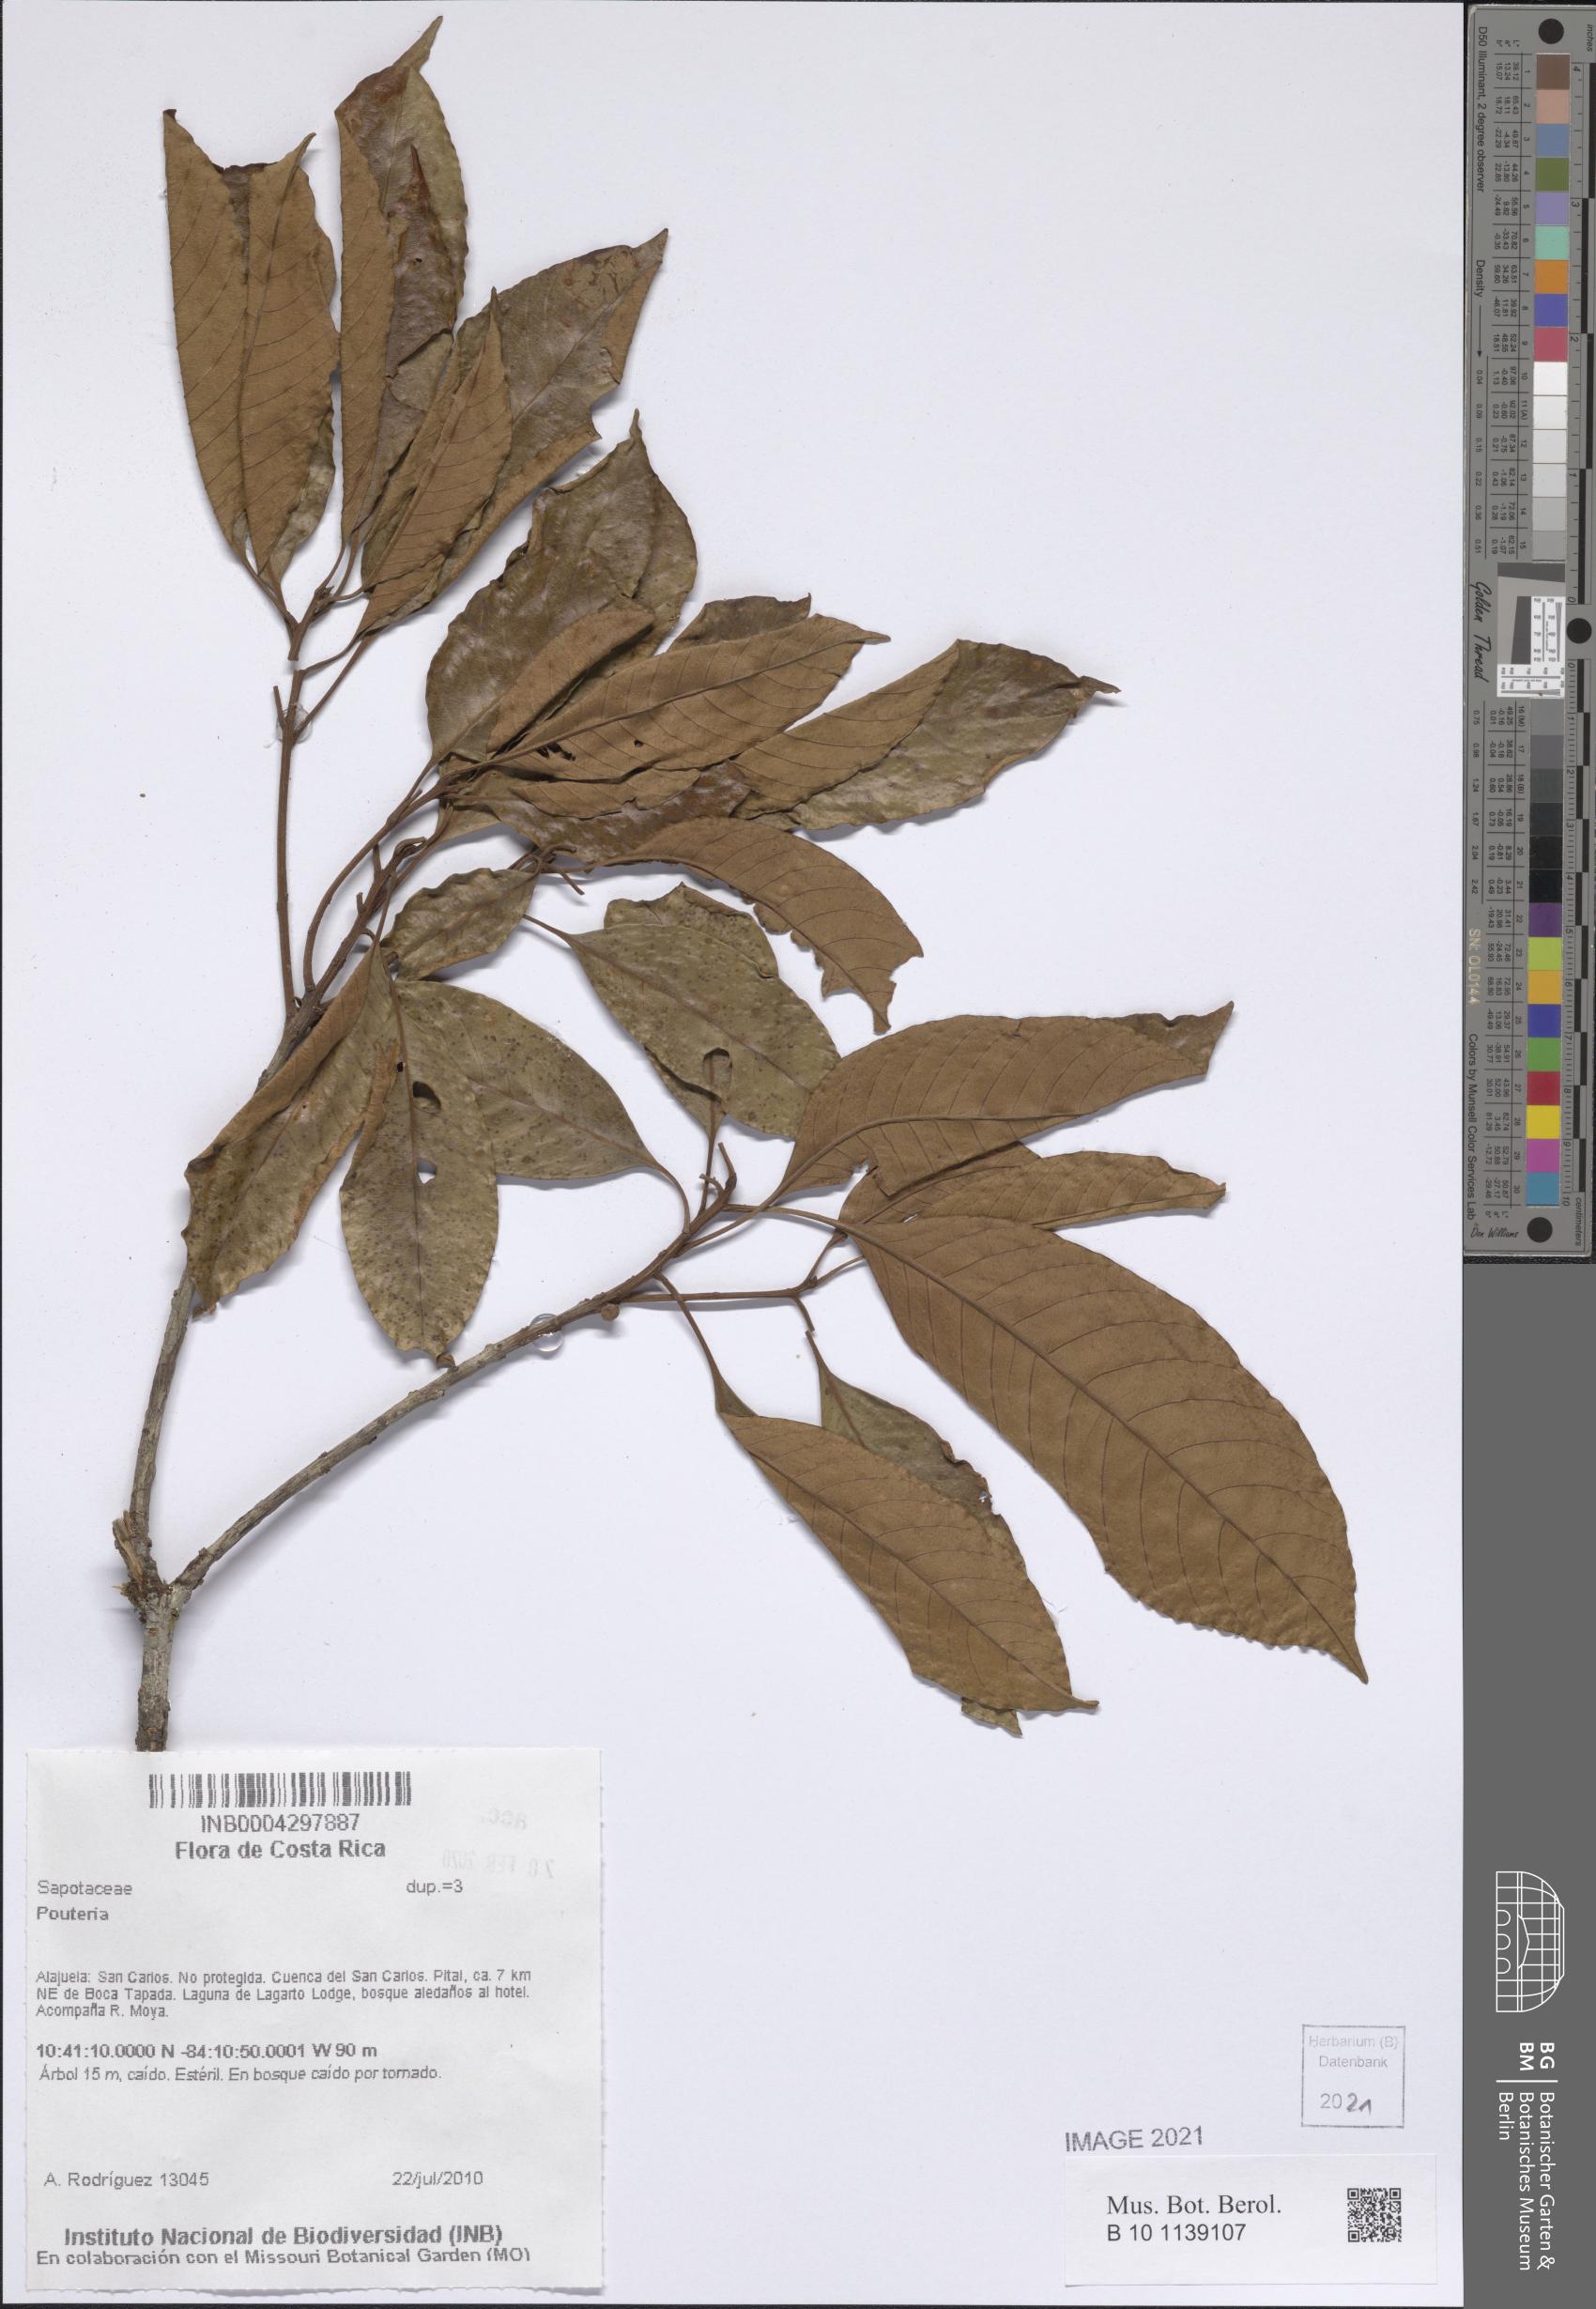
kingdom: Plantae
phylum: Tracheophyta
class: Magnoliopsida
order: Ericales
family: Sapotaceae
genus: Pouteria
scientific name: Pouteria
